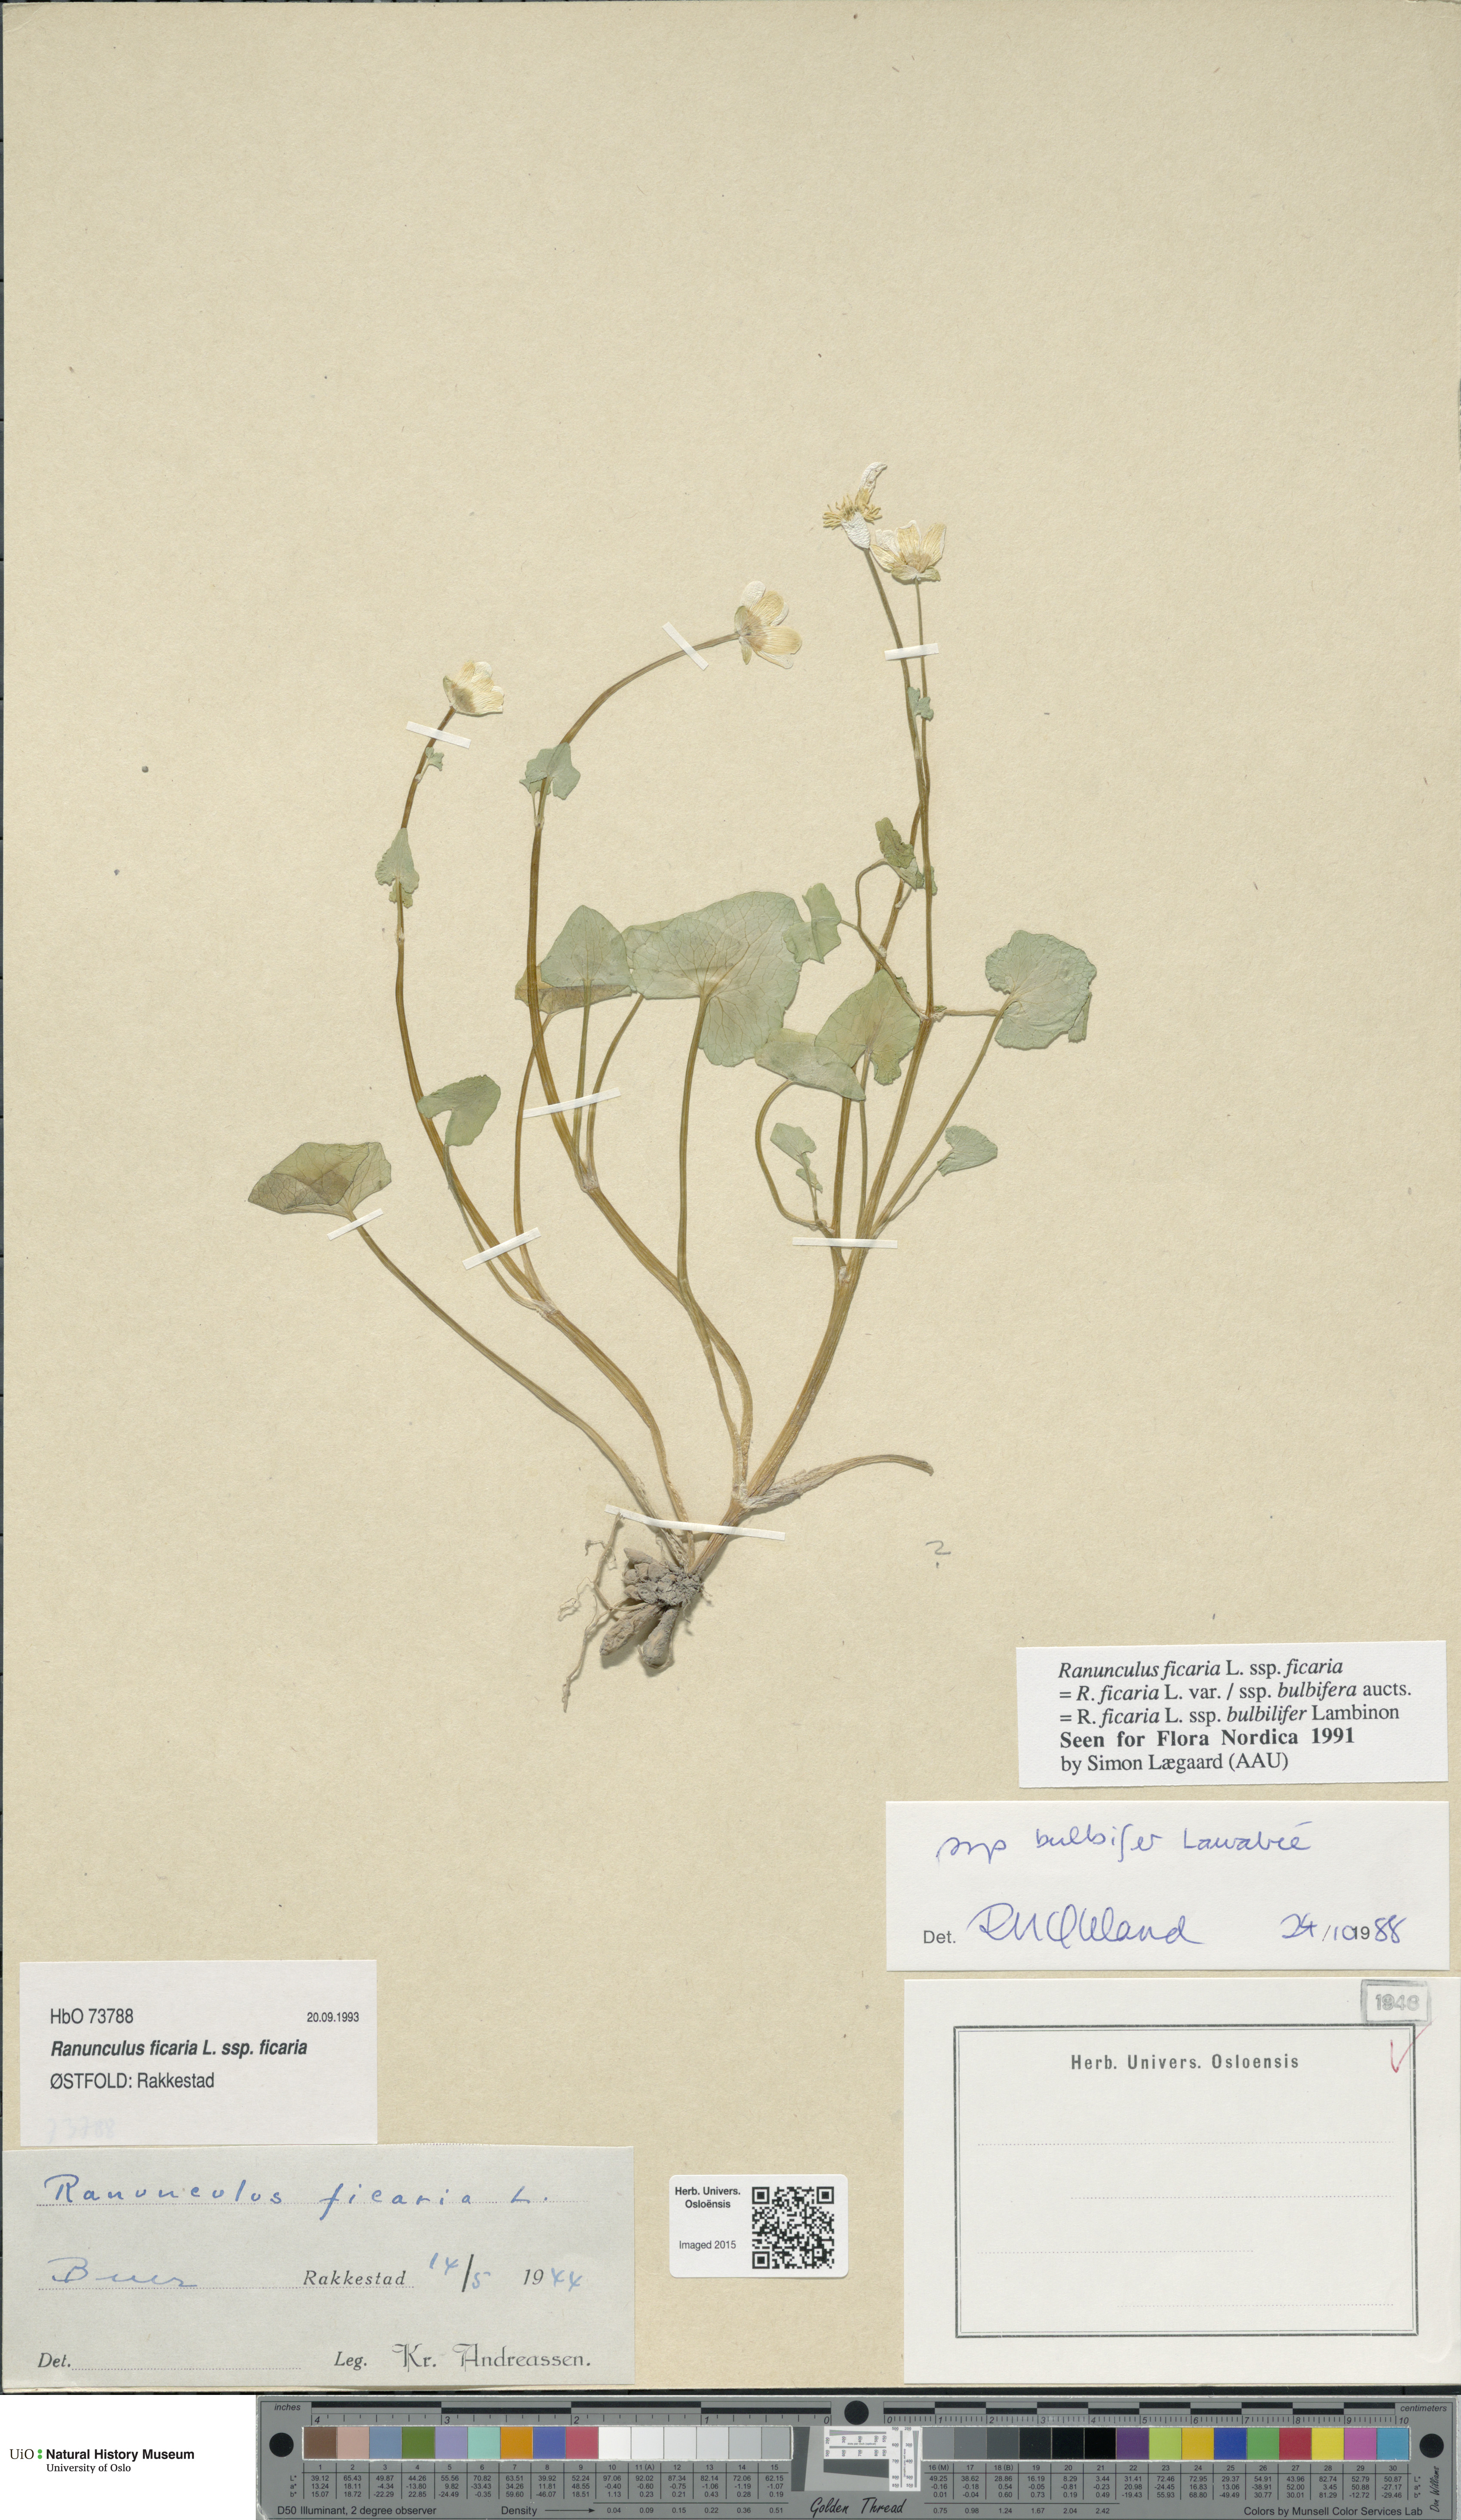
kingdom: Plantae
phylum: Tracheophyta
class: Magnoliopsida
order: Ranunculales
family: Ranunculaceae
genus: Ficaria
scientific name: Ficaria verna
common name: Lesser celandine
